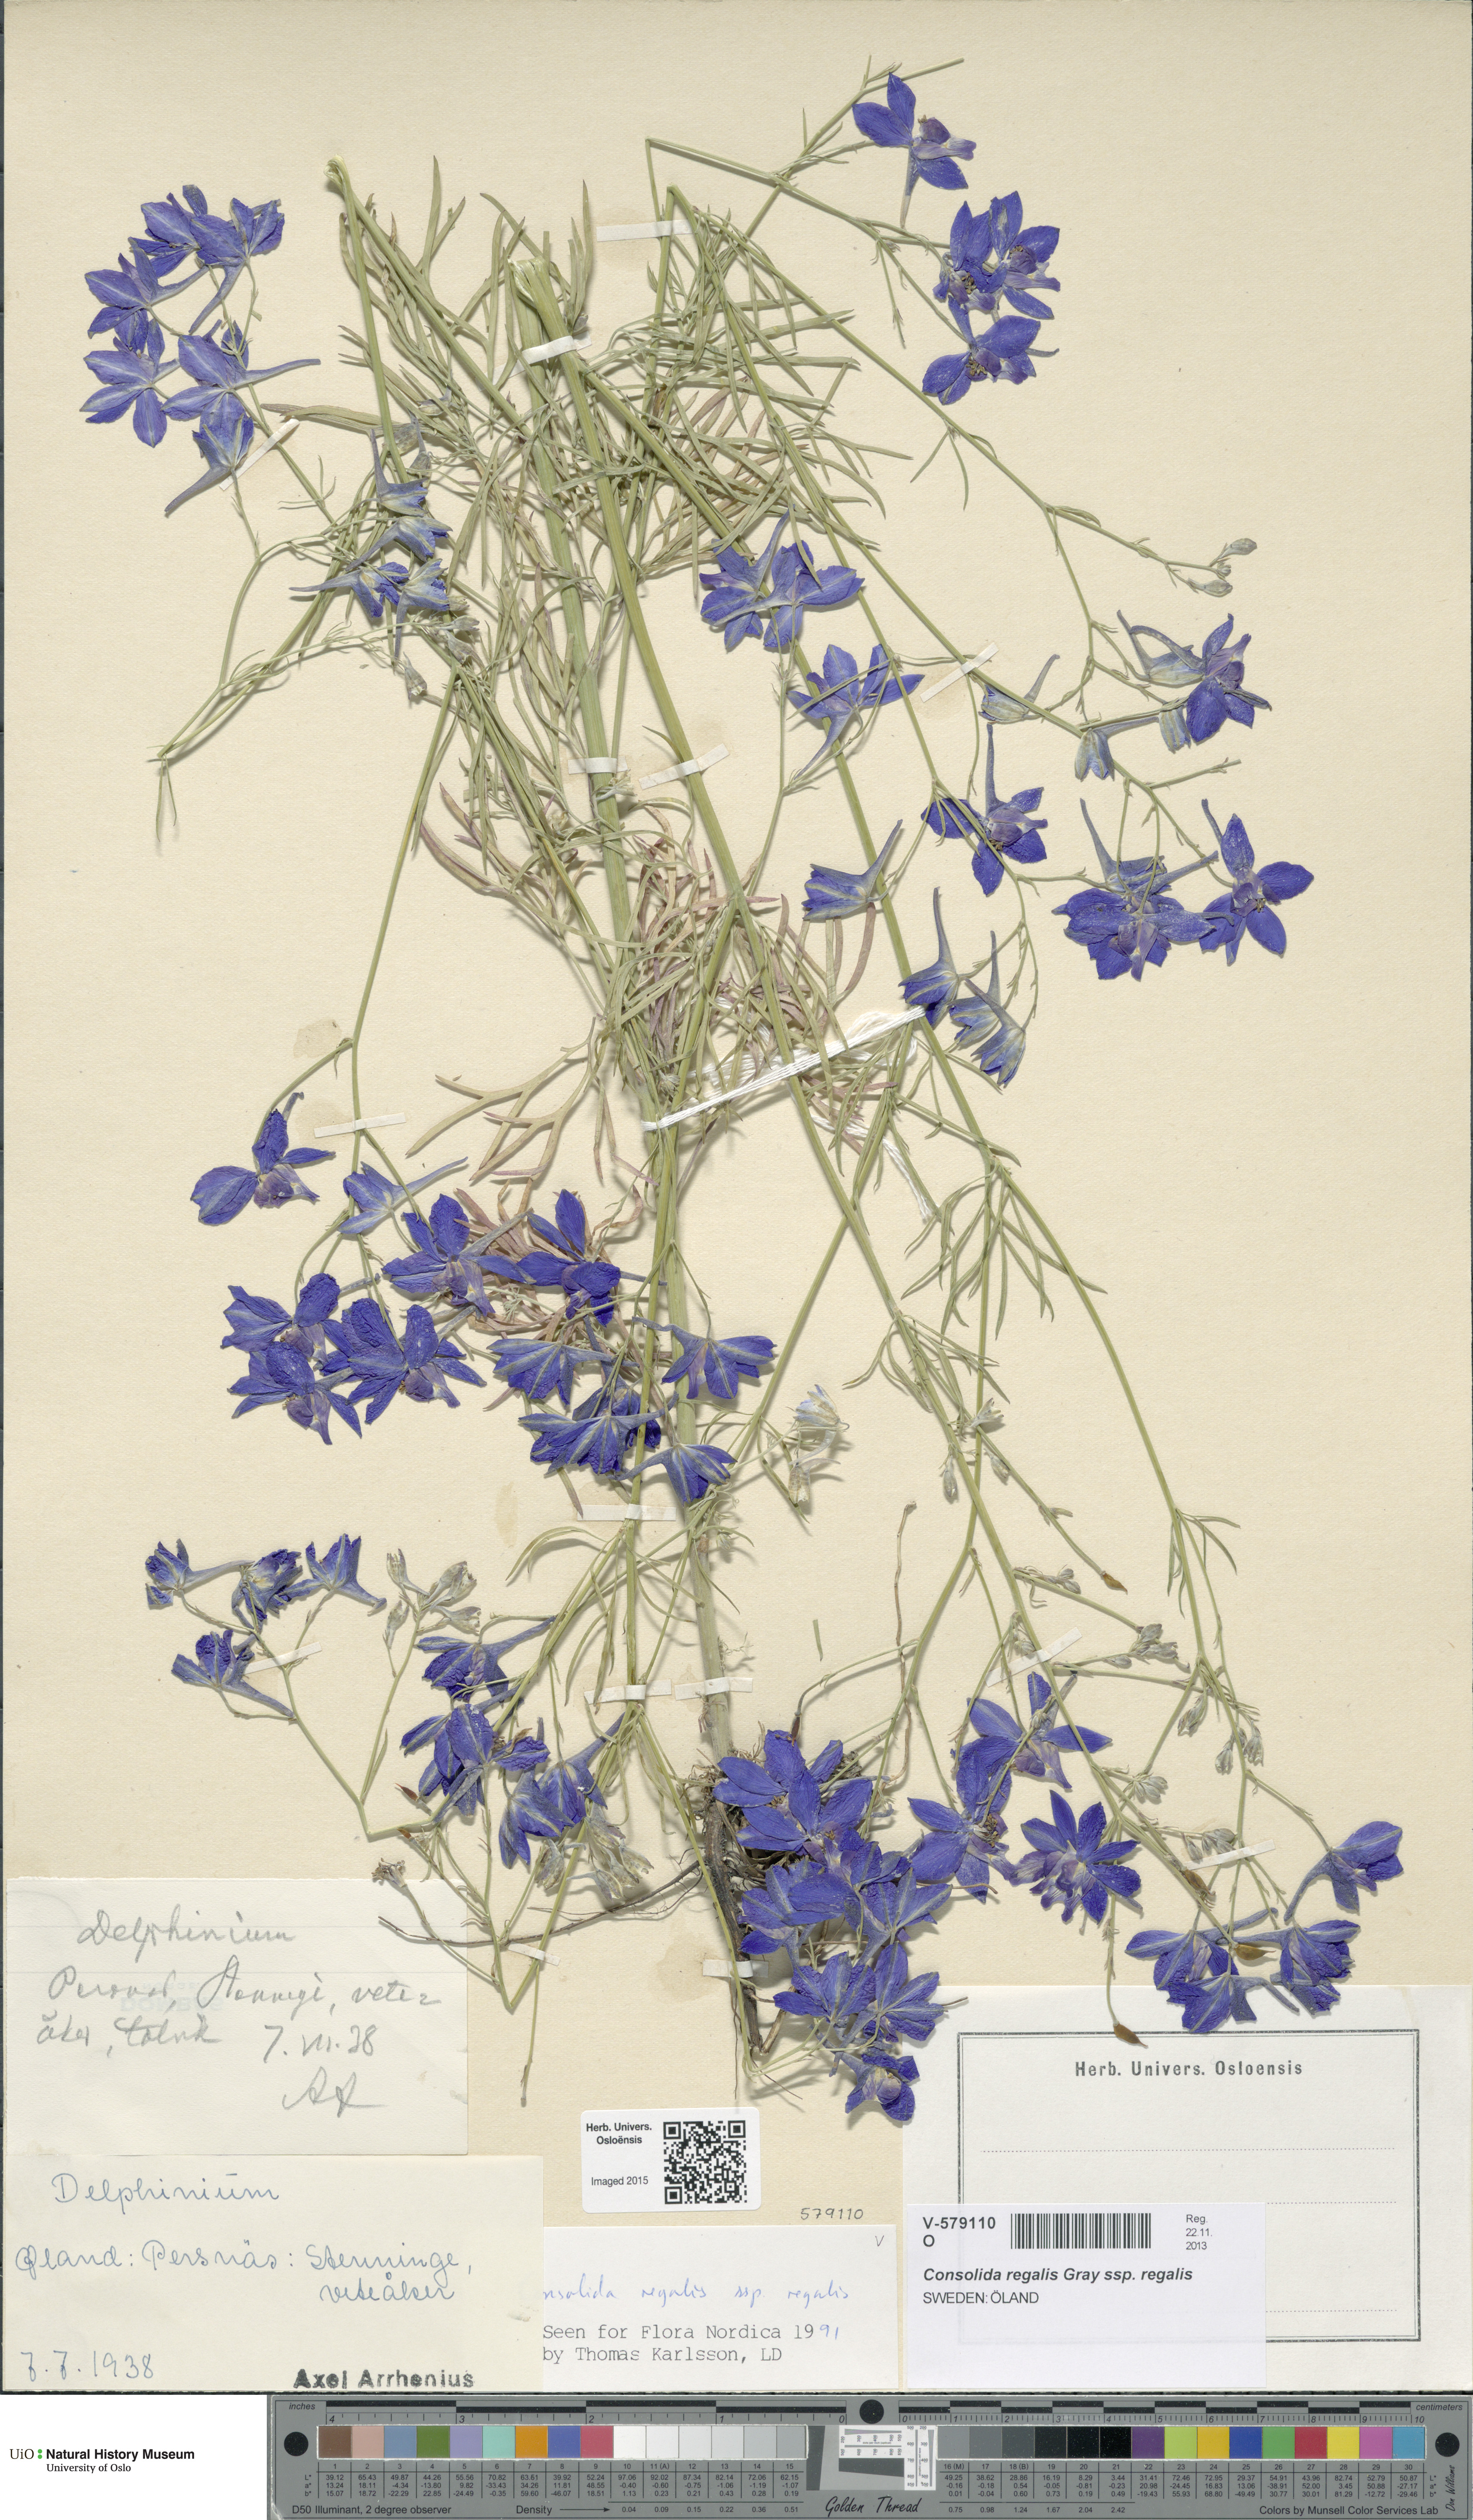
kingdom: Plantae
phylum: Tracheophyta
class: Magnoliopsida
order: Ranunculales
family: Ranunculaceae
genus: Delphinium
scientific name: Delphinium consolida
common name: Branching larkspur
